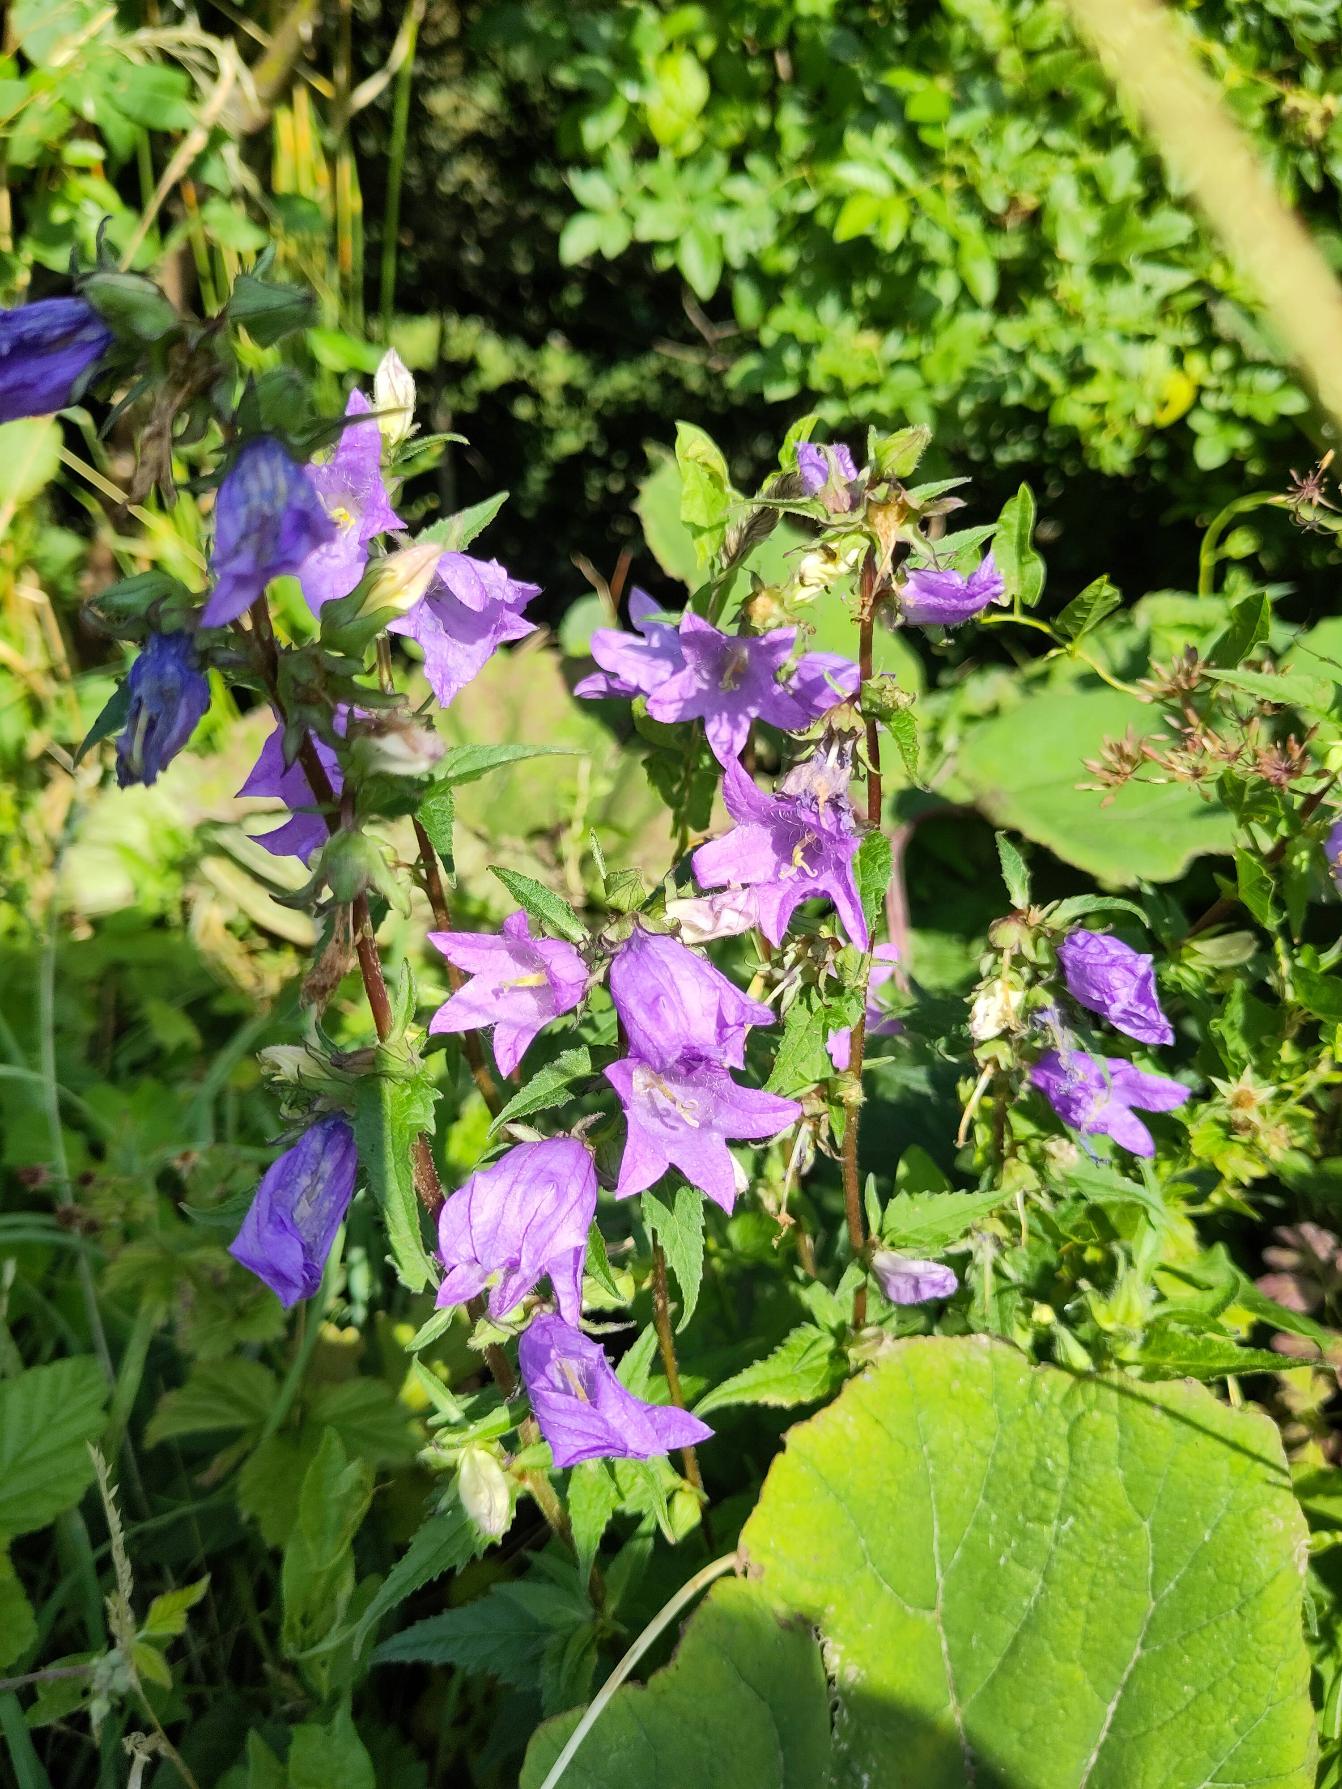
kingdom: Plantae
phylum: Tracheophyta
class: Magnoliopsida
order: Asterales
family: Campanulaceae
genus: Campanula
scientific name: Campanula trachelium
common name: Nælde-klokke
